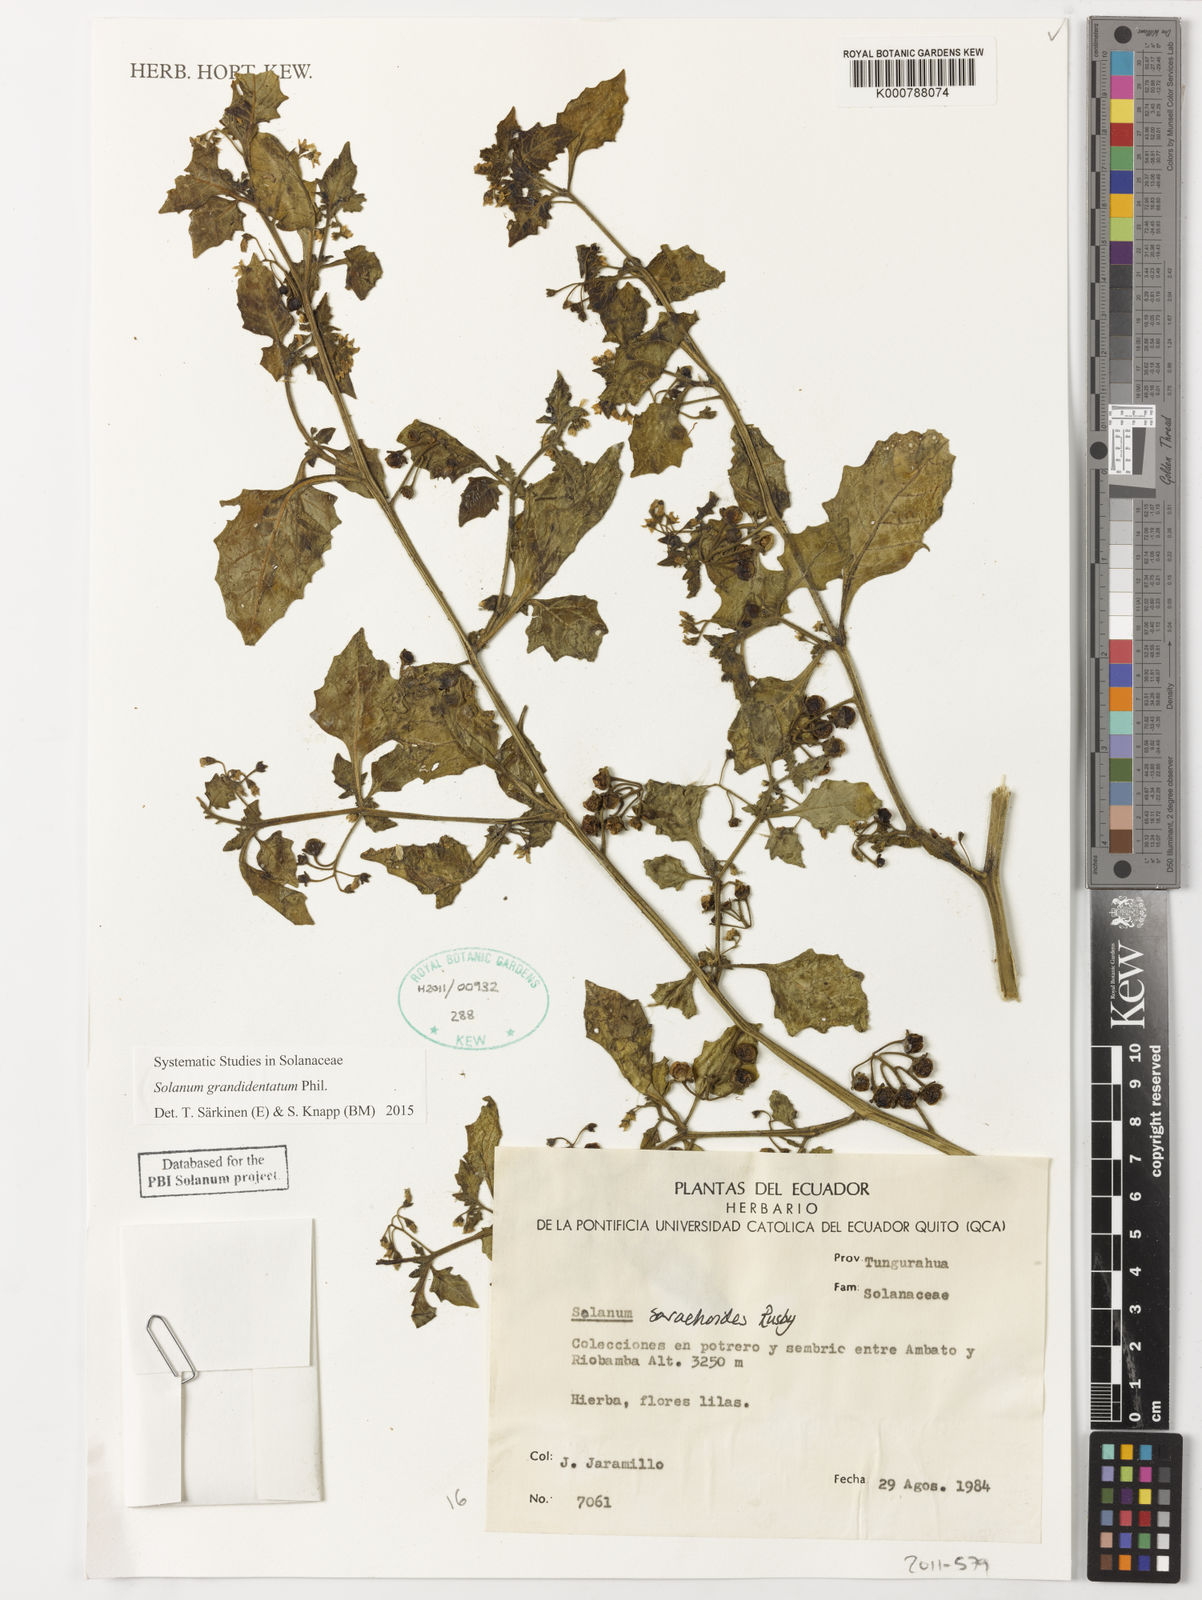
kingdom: Plantae
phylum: Tracheophyta
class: Magnoliopsida
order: Solanales
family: Solanaceae
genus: Solanum
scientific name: Solanum grandidentatum
